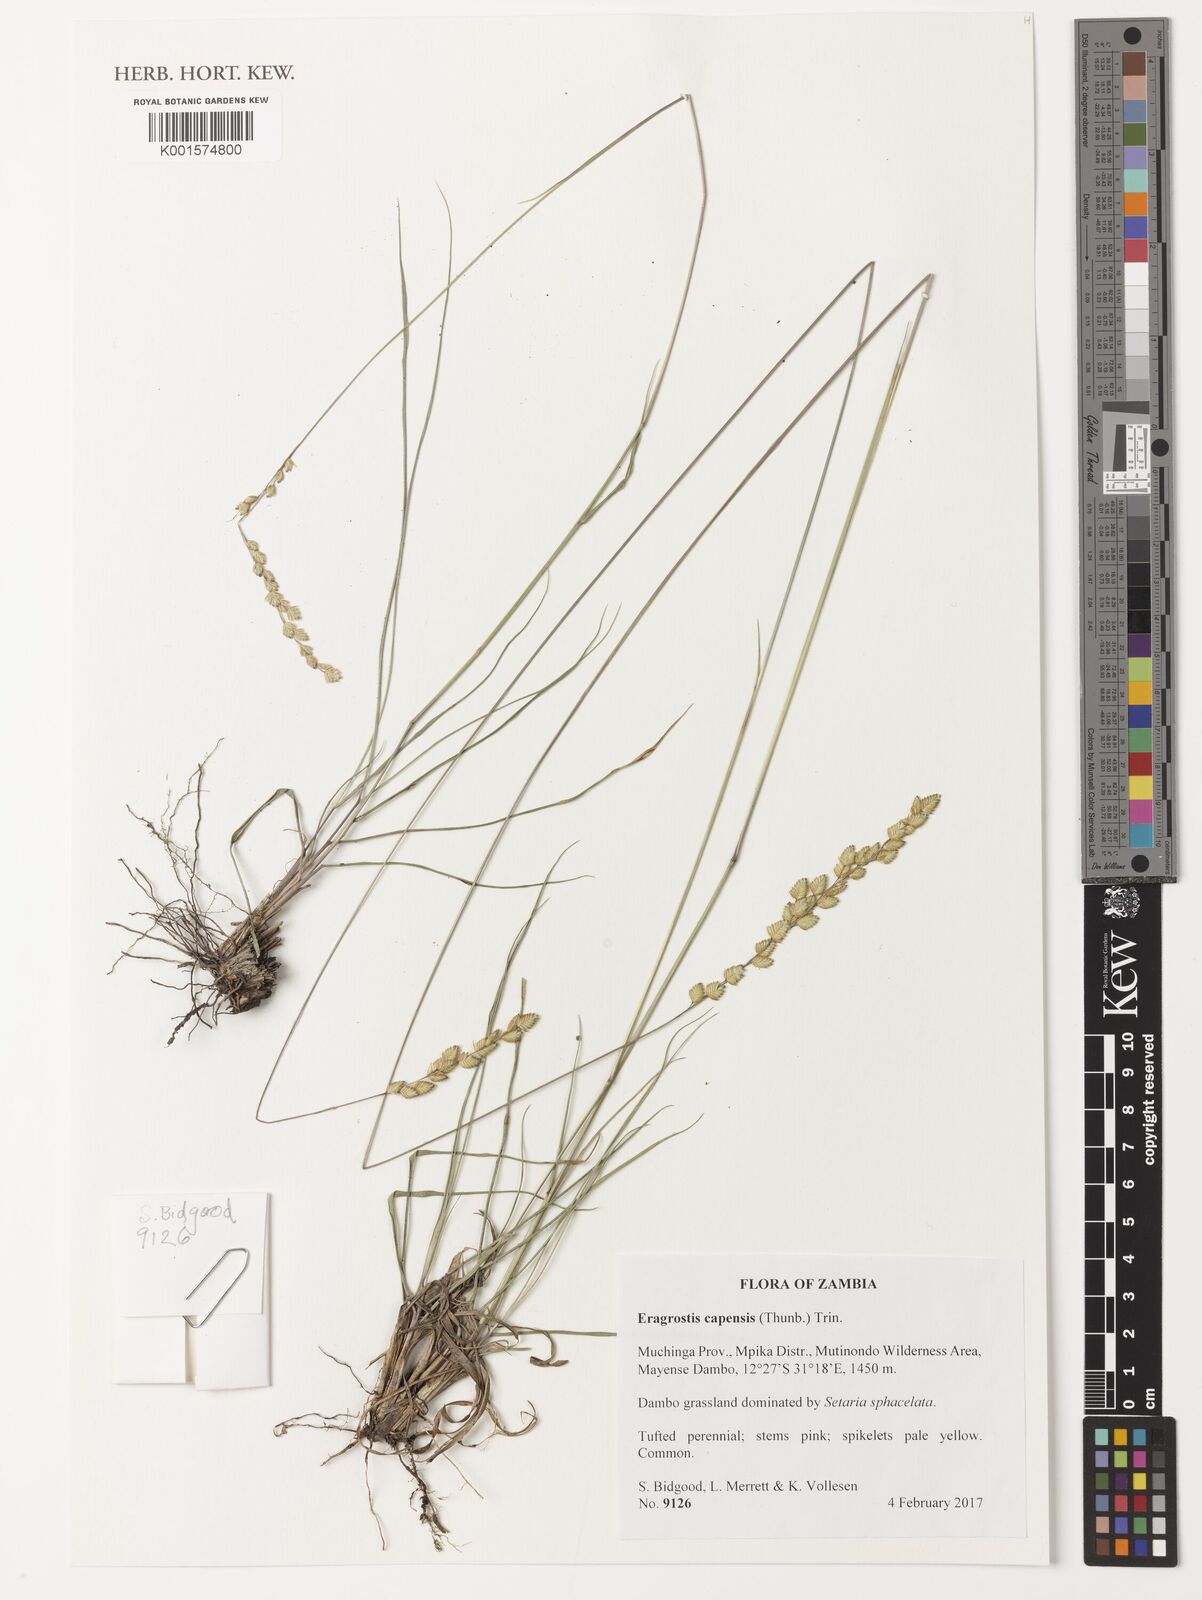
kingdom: Plantae
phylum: Tracheophyta
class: Liliopsida
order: Poales
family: Poaceae
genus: Eragrostis
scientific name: Eragrostis capensis
